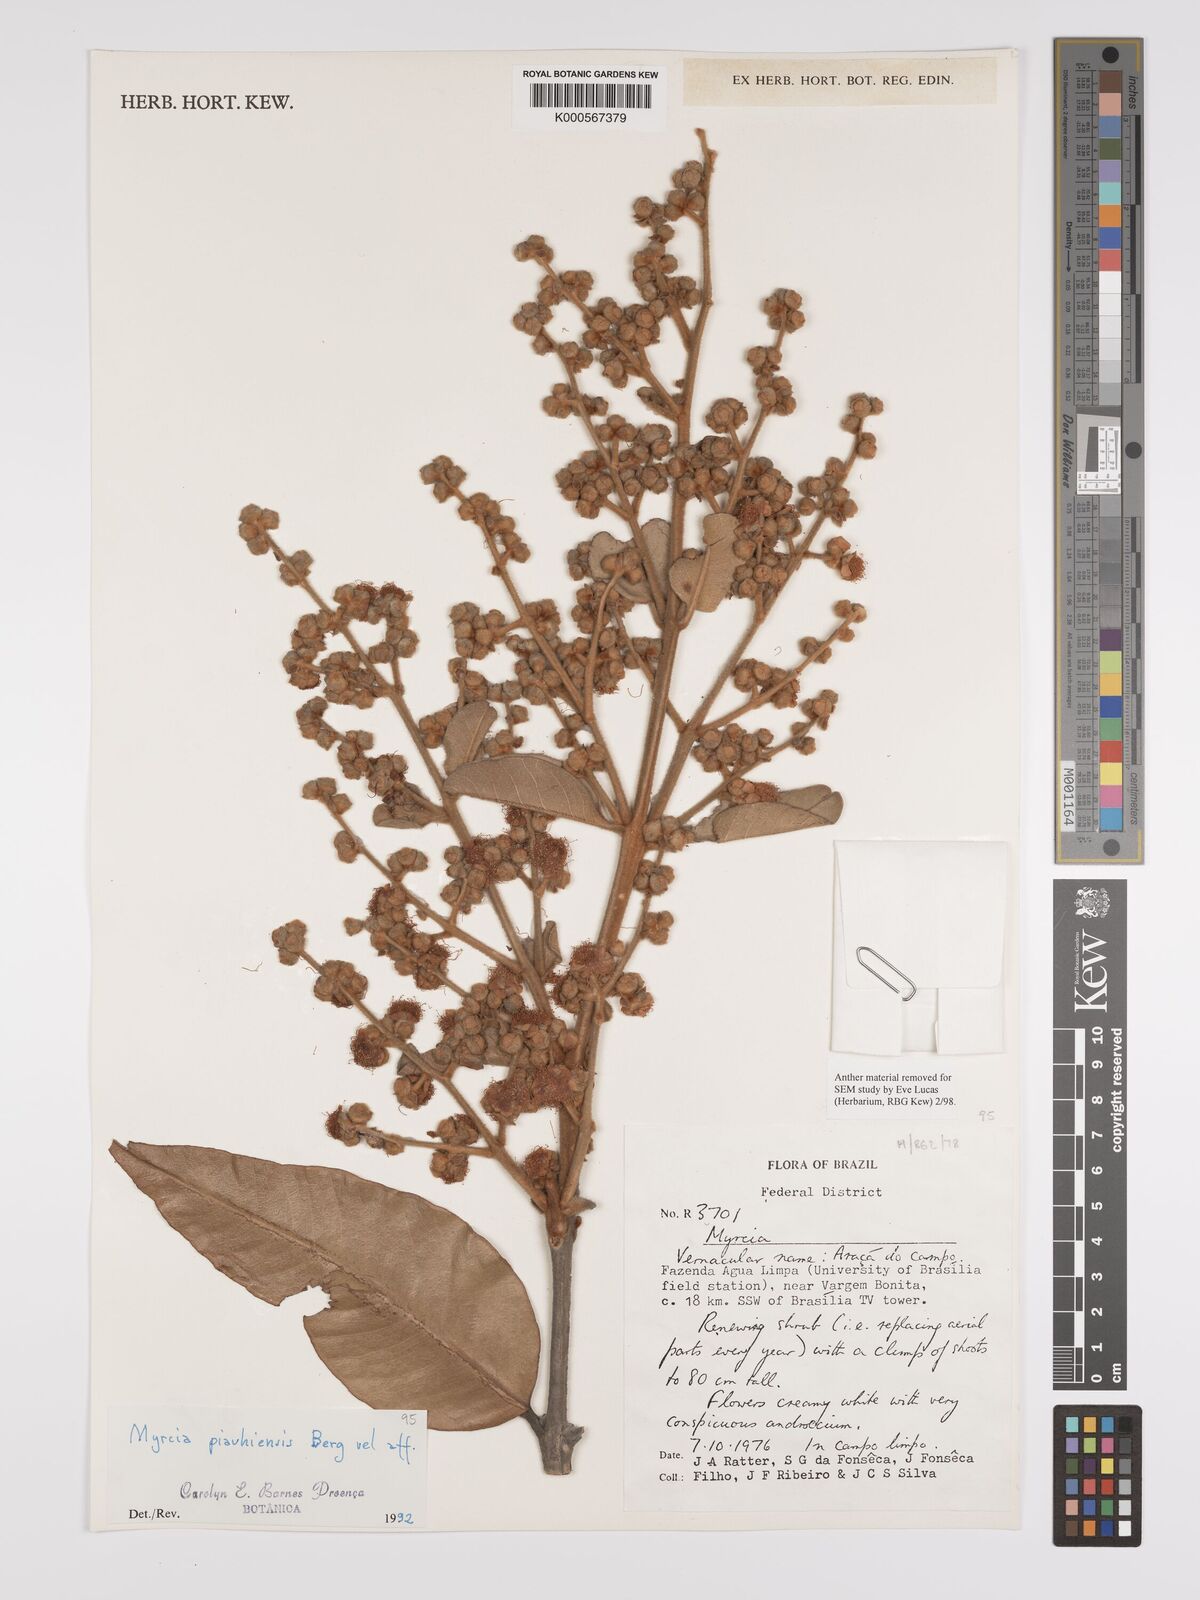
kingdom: Plantae
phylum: Tracheophyta
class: Magnoliopsida
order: Myrtales
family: Myrtaceae
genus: Myrcia
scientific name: Myrcia tomentosa
